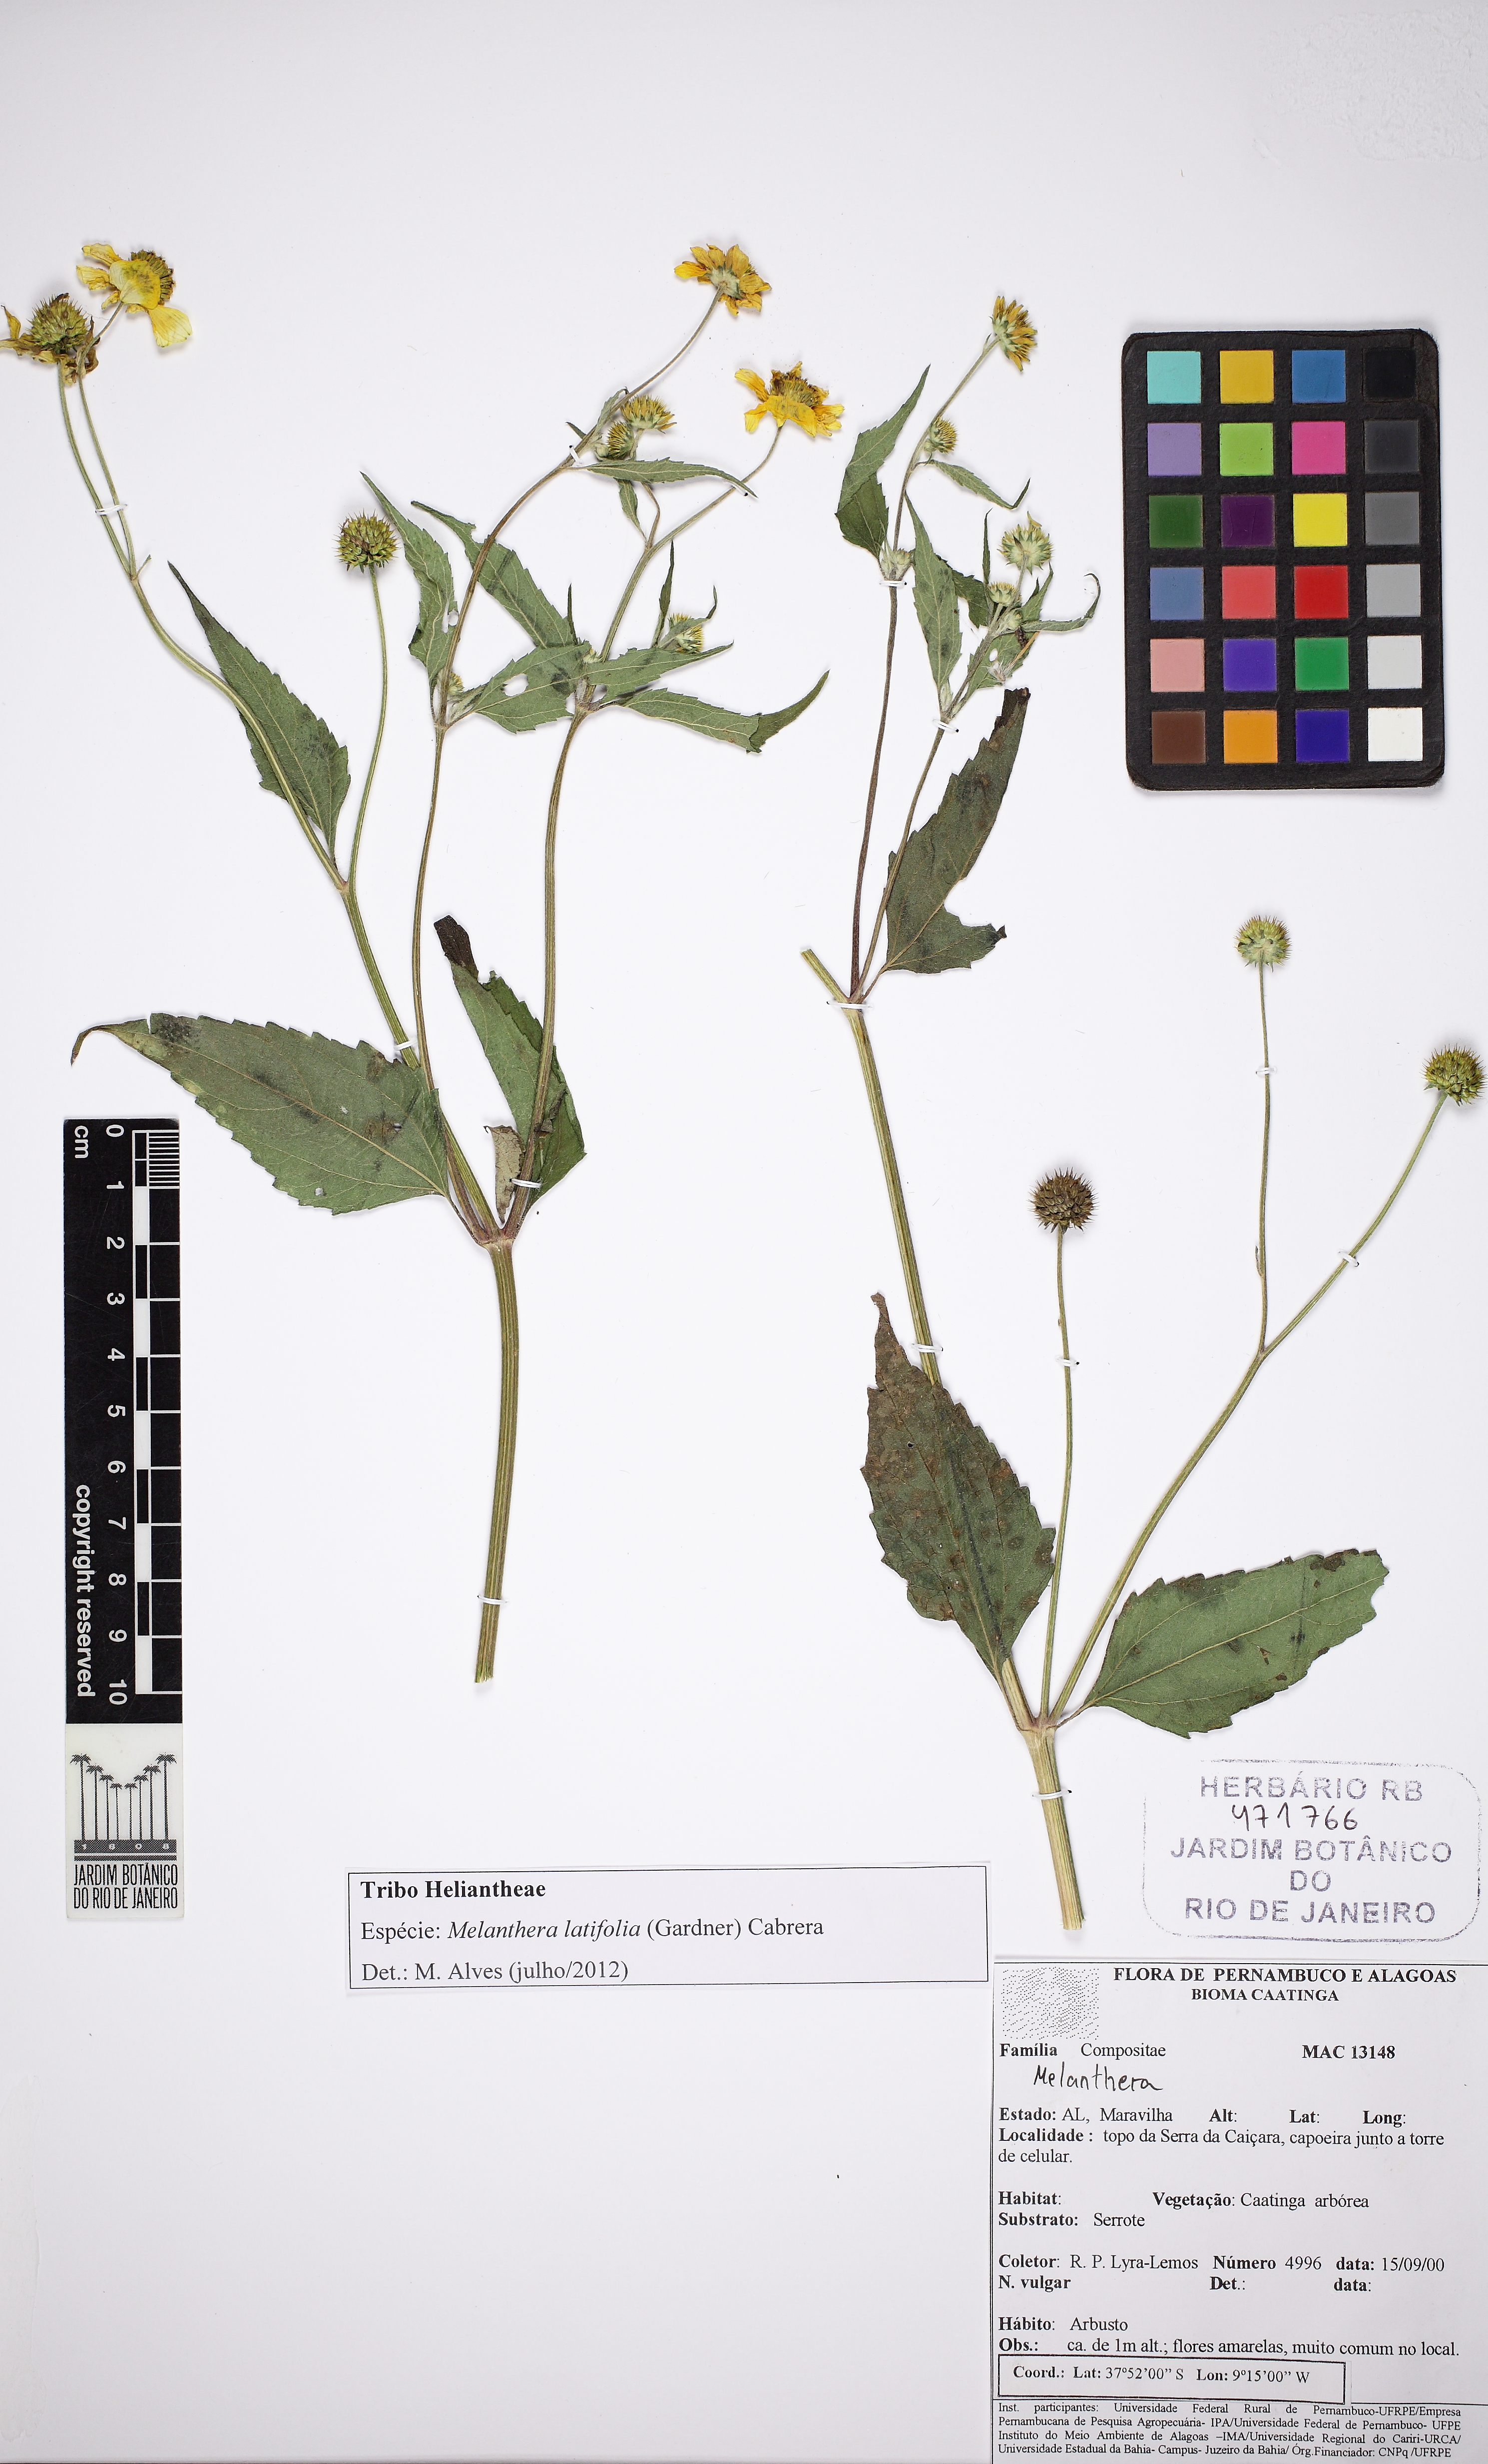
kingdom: Plantae
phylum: Tracheophyta
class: Magnoliopsida
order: Asterales
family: Asteraceae
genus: Echinocephalum
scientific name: Echinocephalum latifolium
